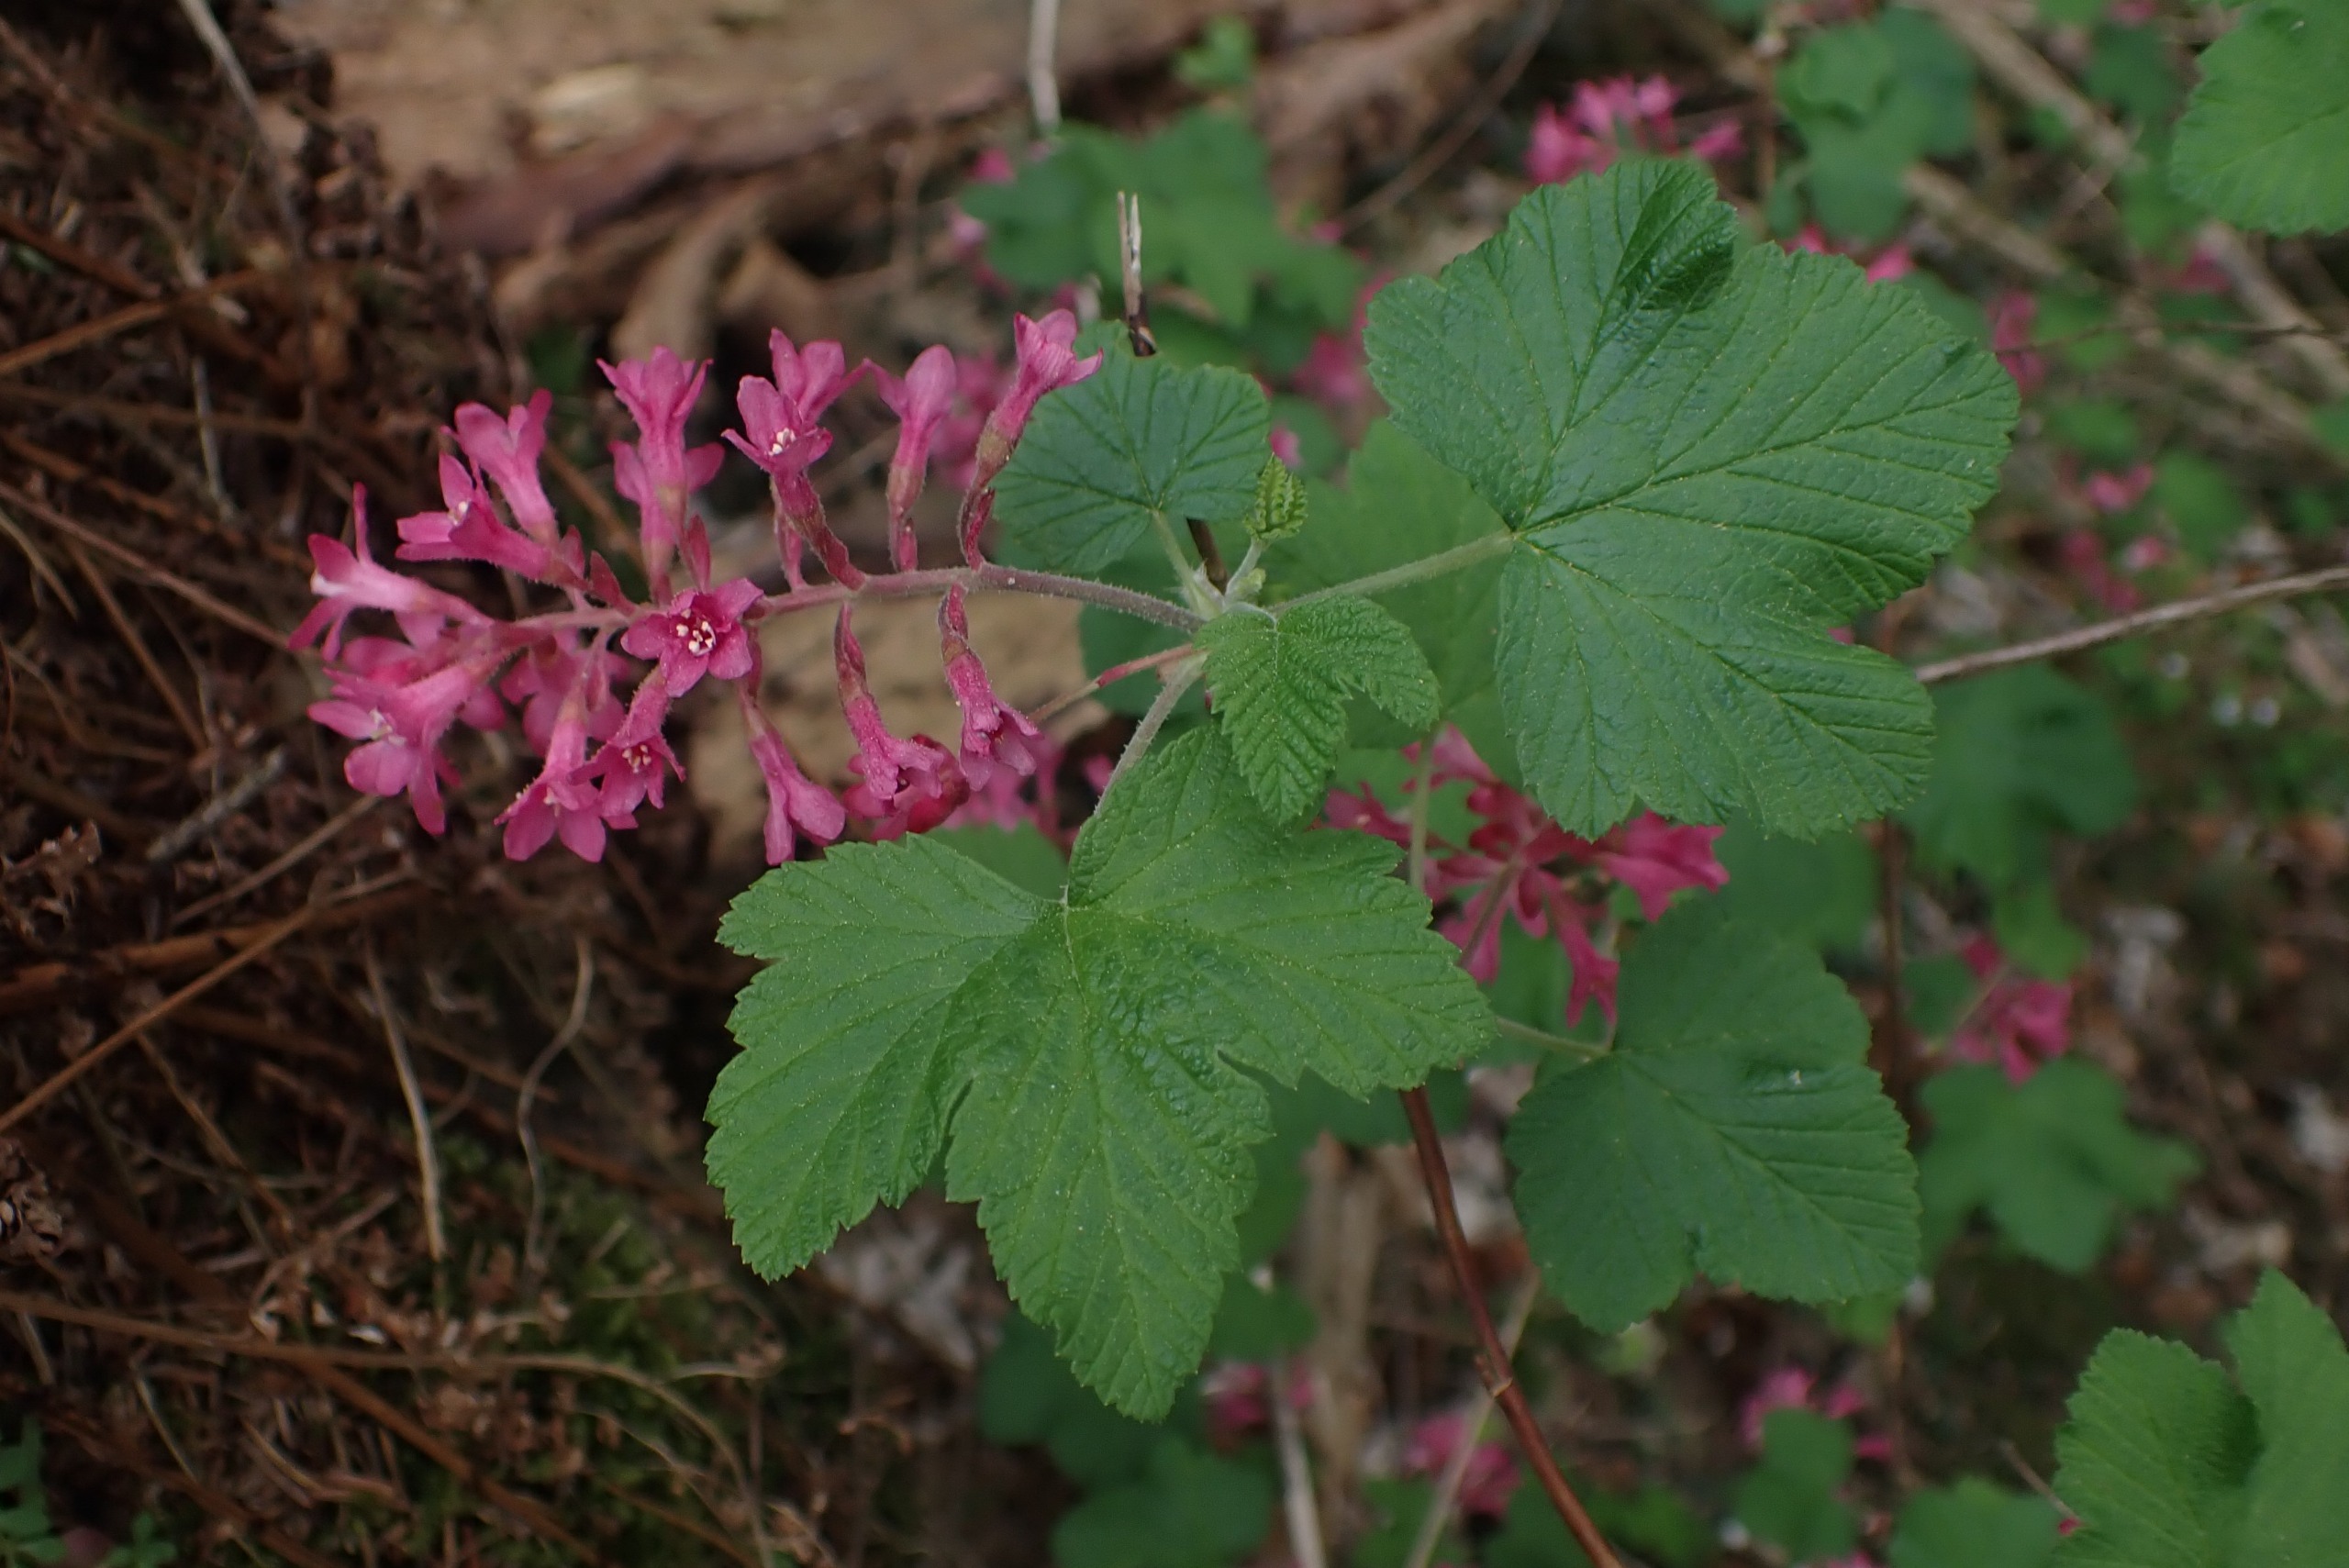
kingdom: Plantae
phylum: Tracheophyta
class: Magnoliopsida
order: Saxifragales
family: Grossulariaceae
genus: Ribes
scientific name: Ribes sanguineum
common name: Blod-ribs
